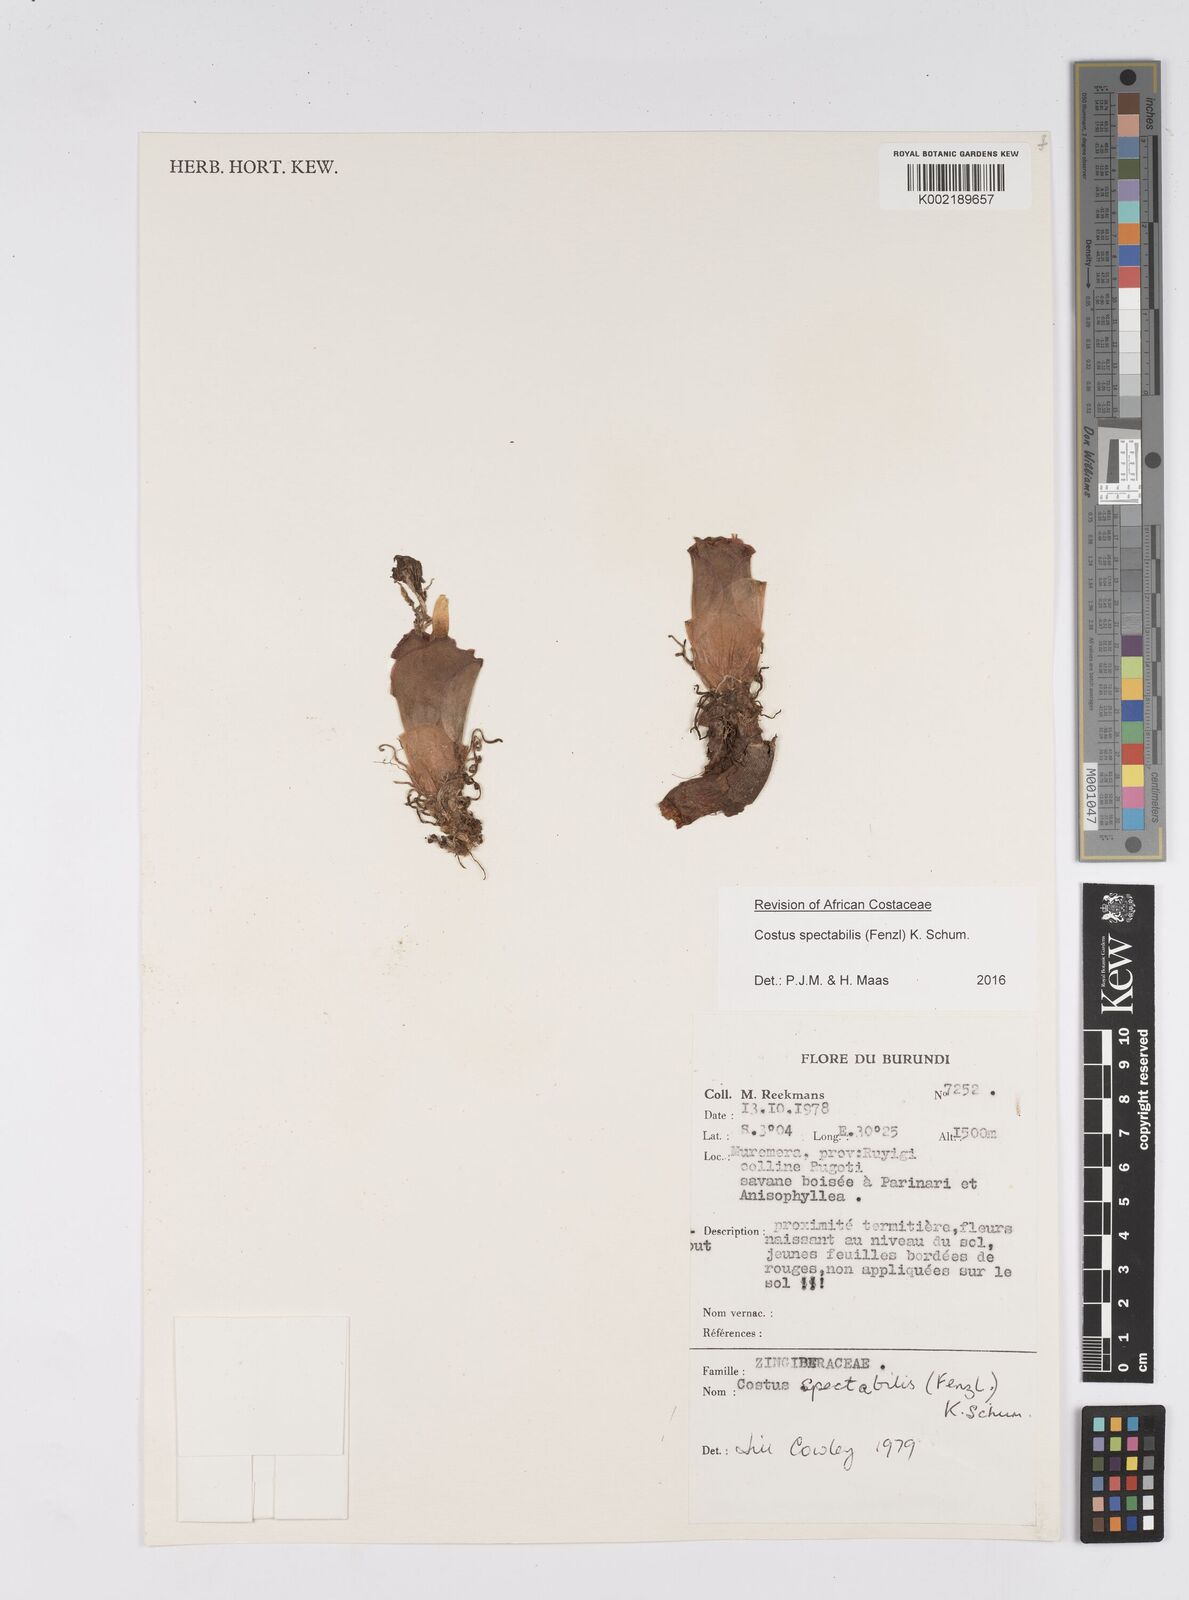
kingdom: Plantae
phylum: Tracheophyta
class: Liliopsida
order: Zingiberales
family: Costaceae
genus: Costus
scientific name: Costus spectabilis
